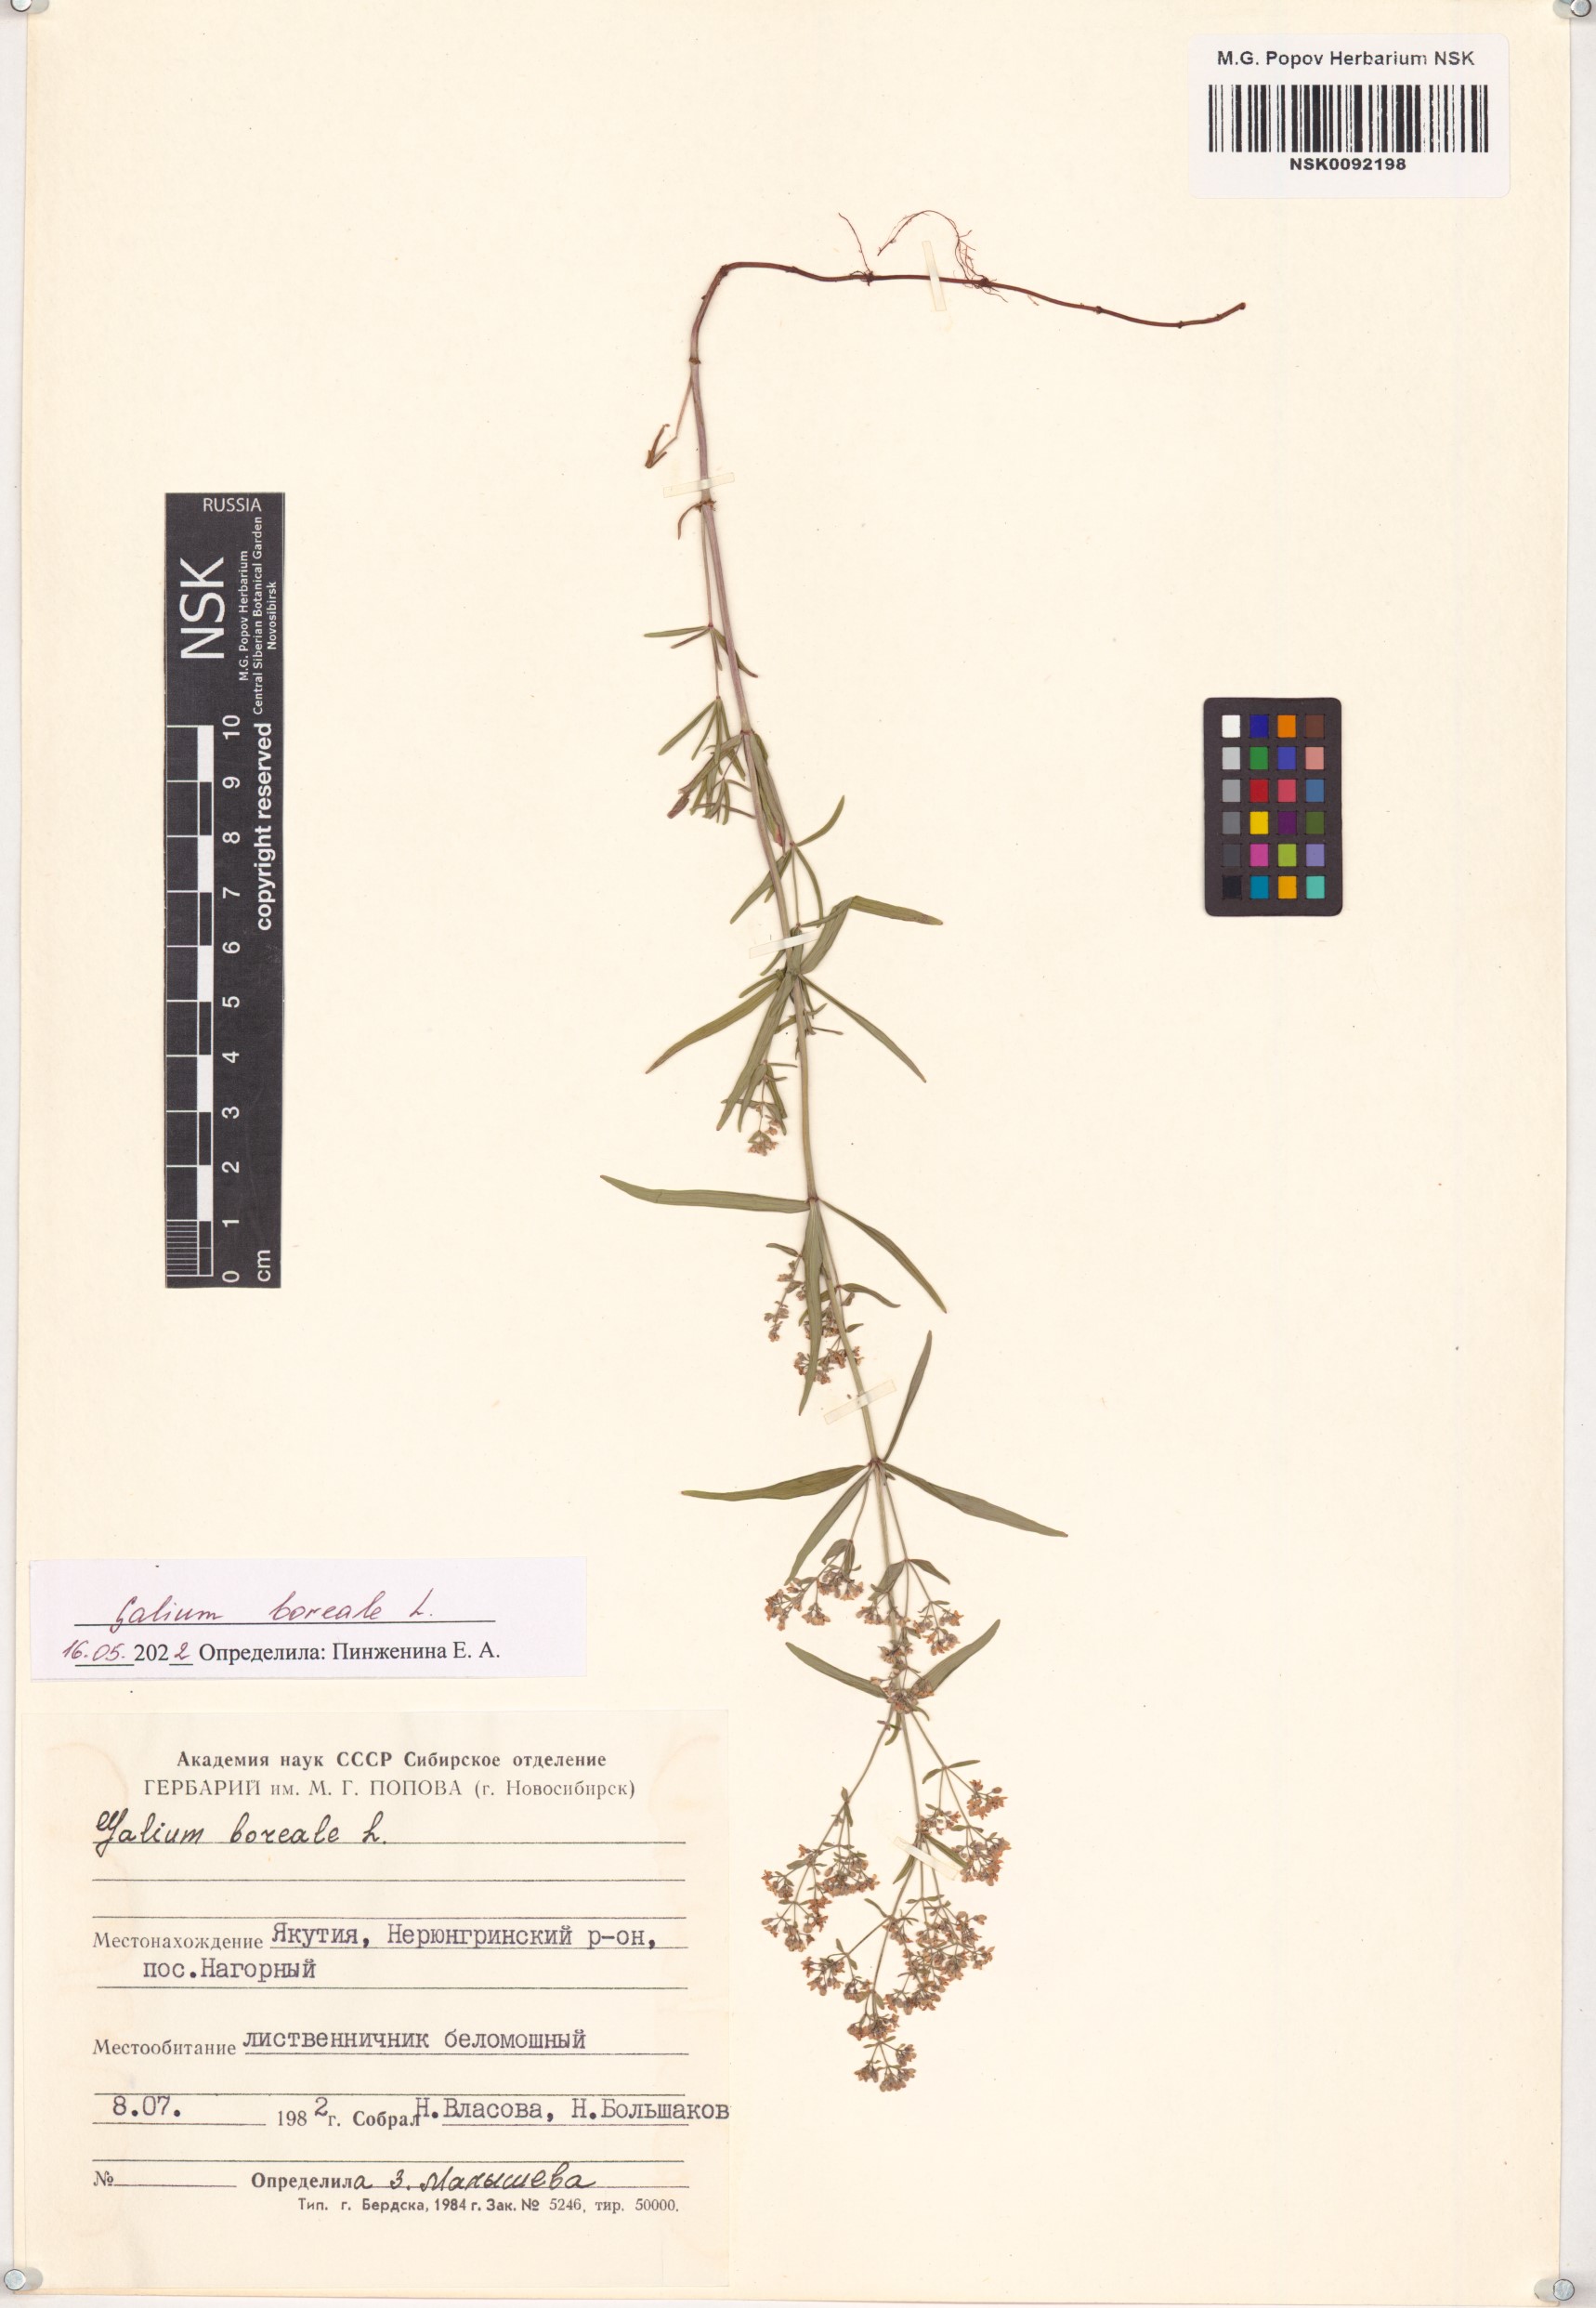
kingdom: Plantae
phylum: Tracheophyta
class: Magnoliopsida
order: Gentianales
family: Rubiaceae
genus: Galium
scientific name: Galium boreale
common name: Northern bedstraw
